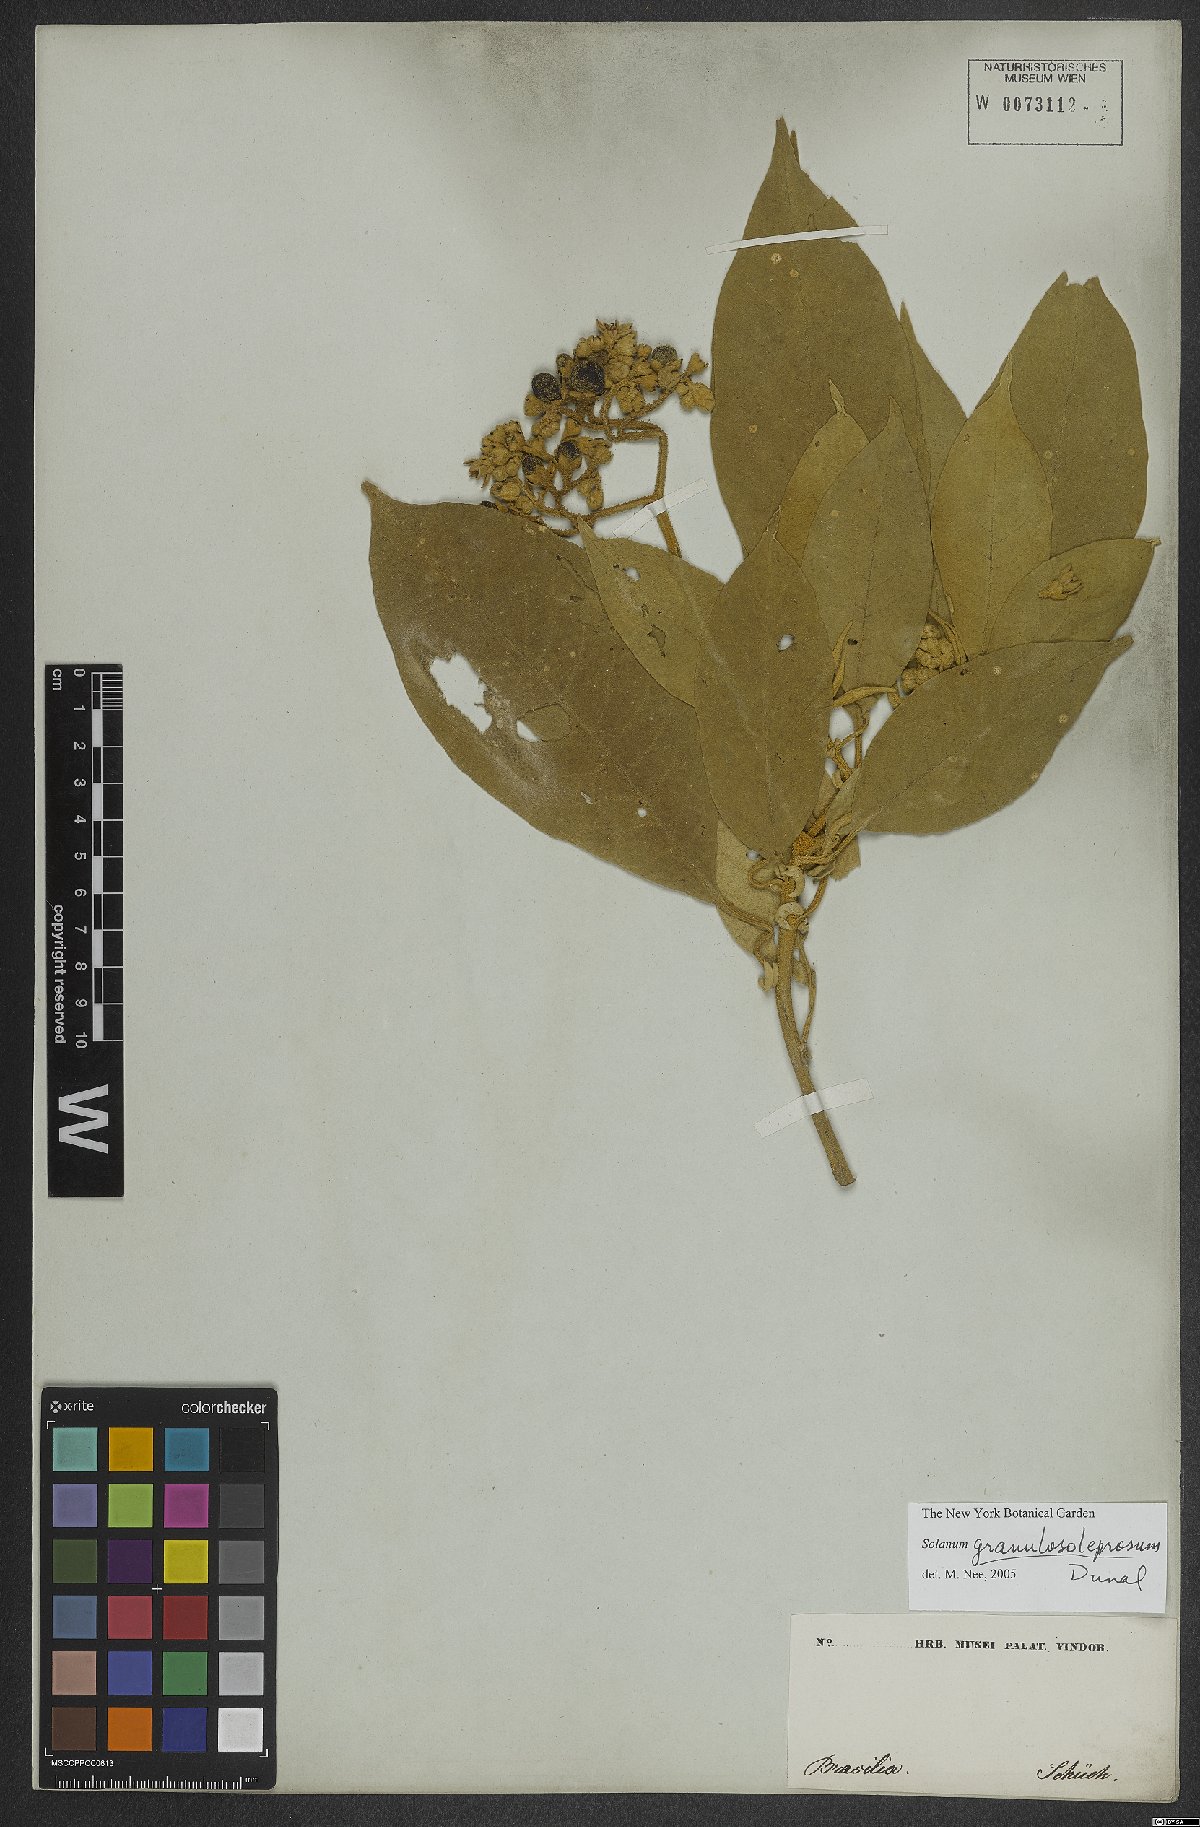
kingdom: Plantae
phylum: Tracheophyta
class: Magnoliopsida
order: Solanales
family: Solanaceae
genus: Solanum
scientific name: Solanum granulosoleprosum
